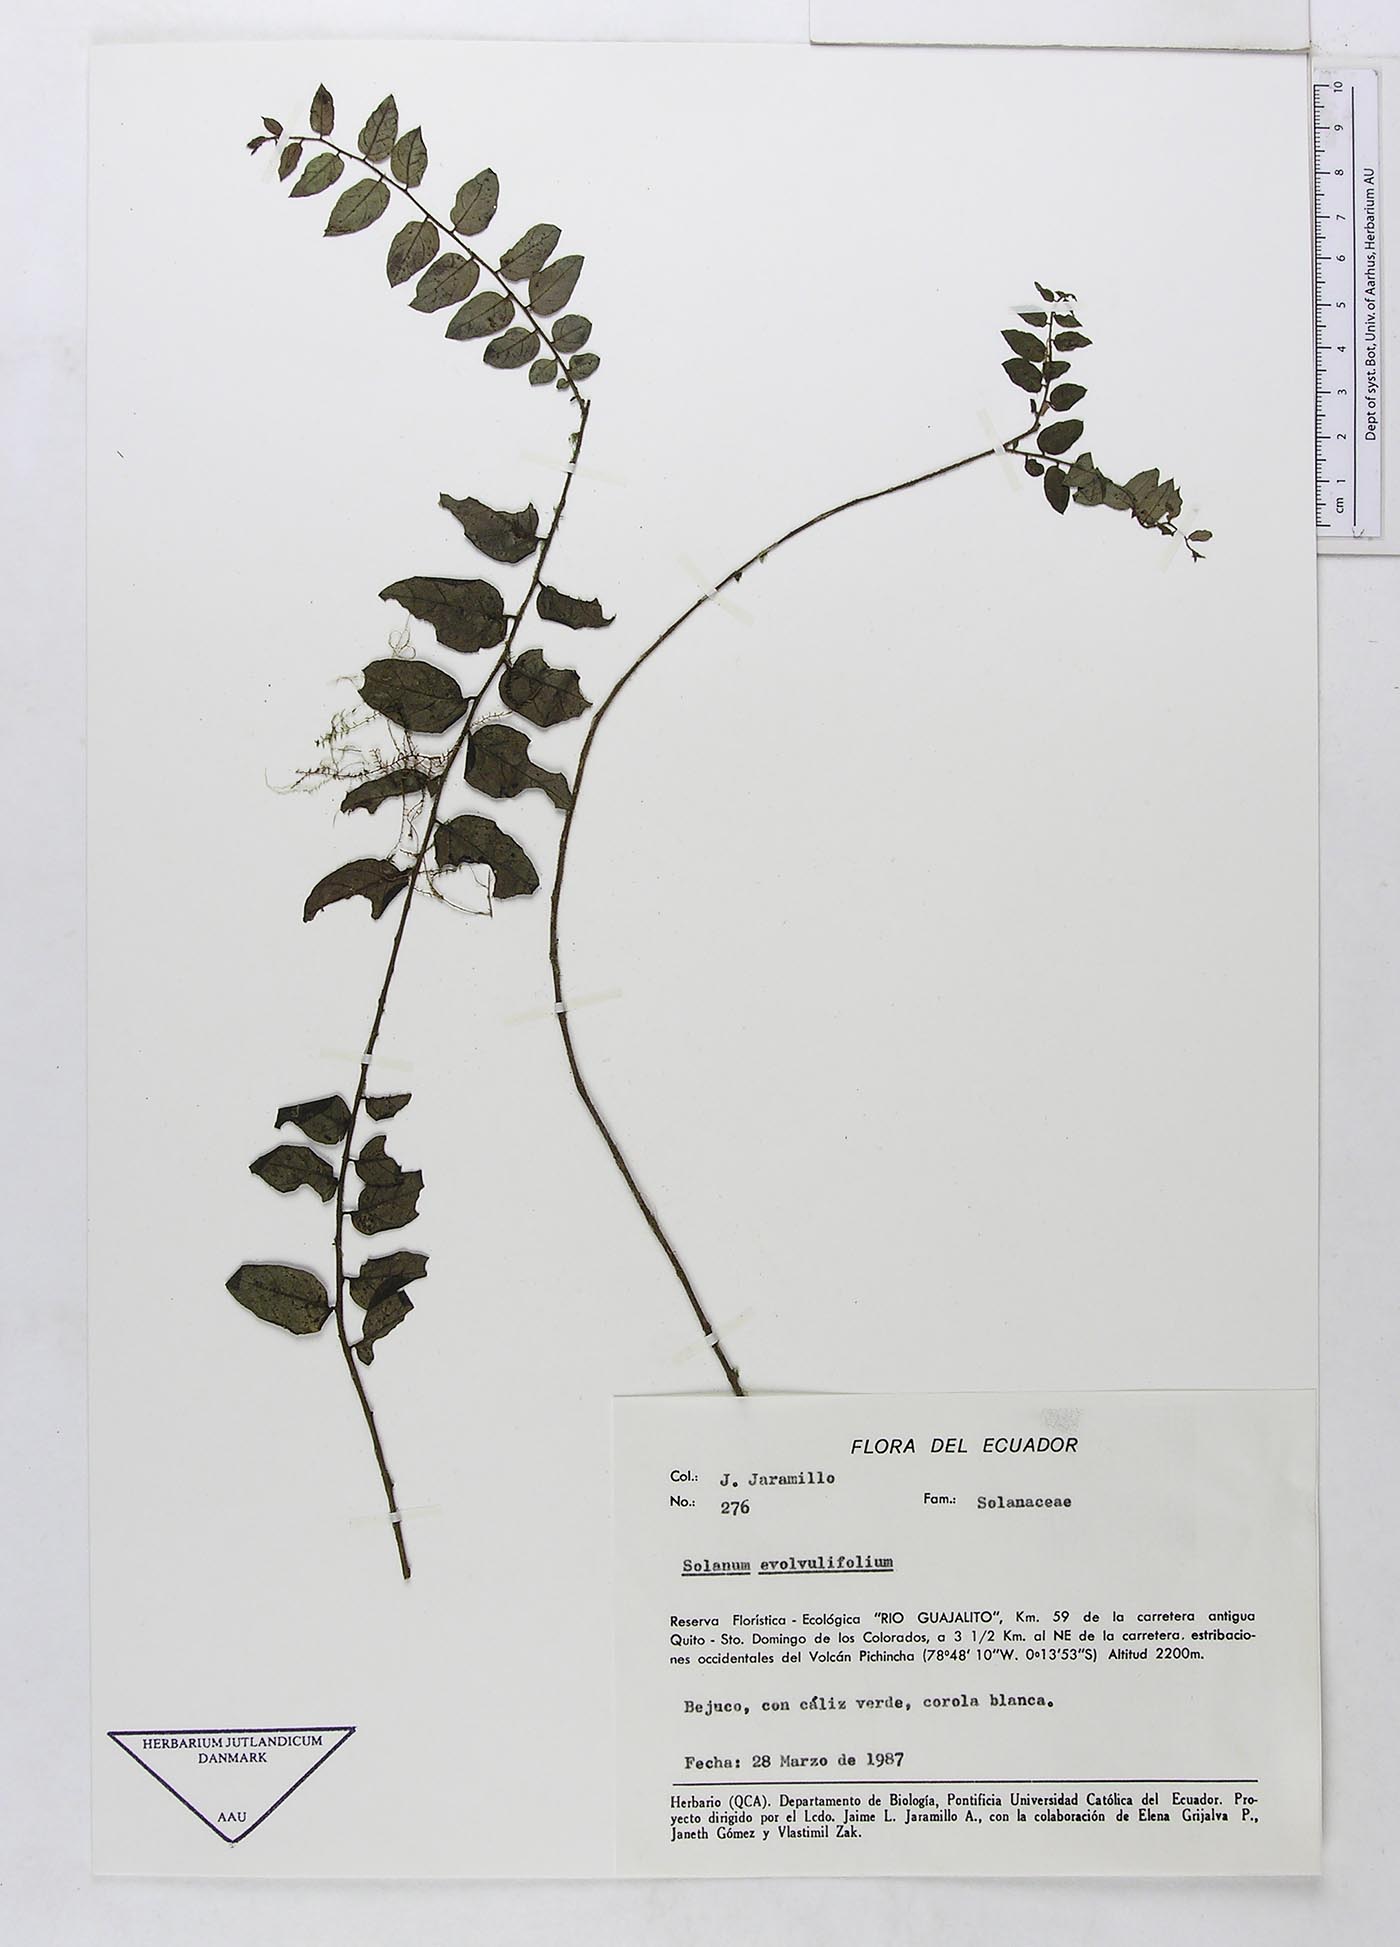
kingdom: Plantae
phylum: Tracheophyta
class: Magnoliopsida
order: Solanales
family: Solanaceae
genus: Solanum
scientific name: Solanum evolvulifolium
